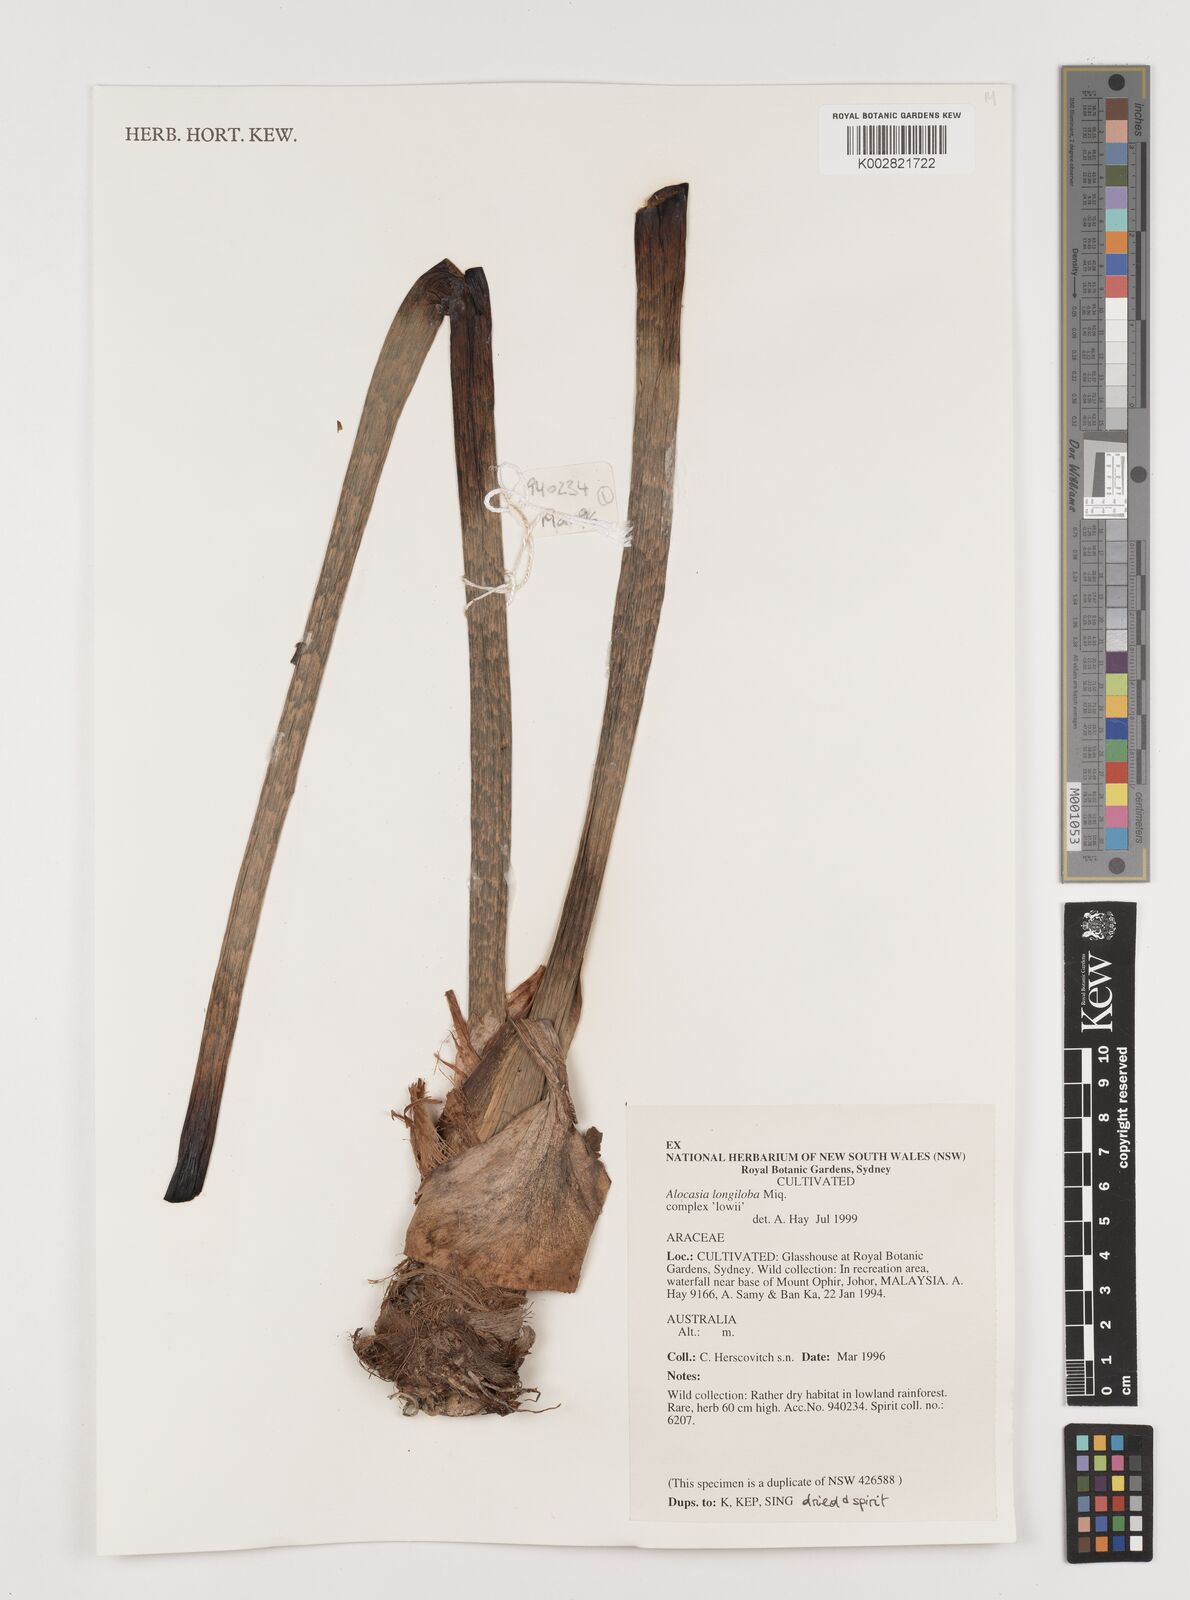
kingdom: Plantae
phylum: Tracheophyta
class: Liliopsida
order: Alismatales
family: Araceae
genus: Alocasia
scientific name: Alocasia longiloba
